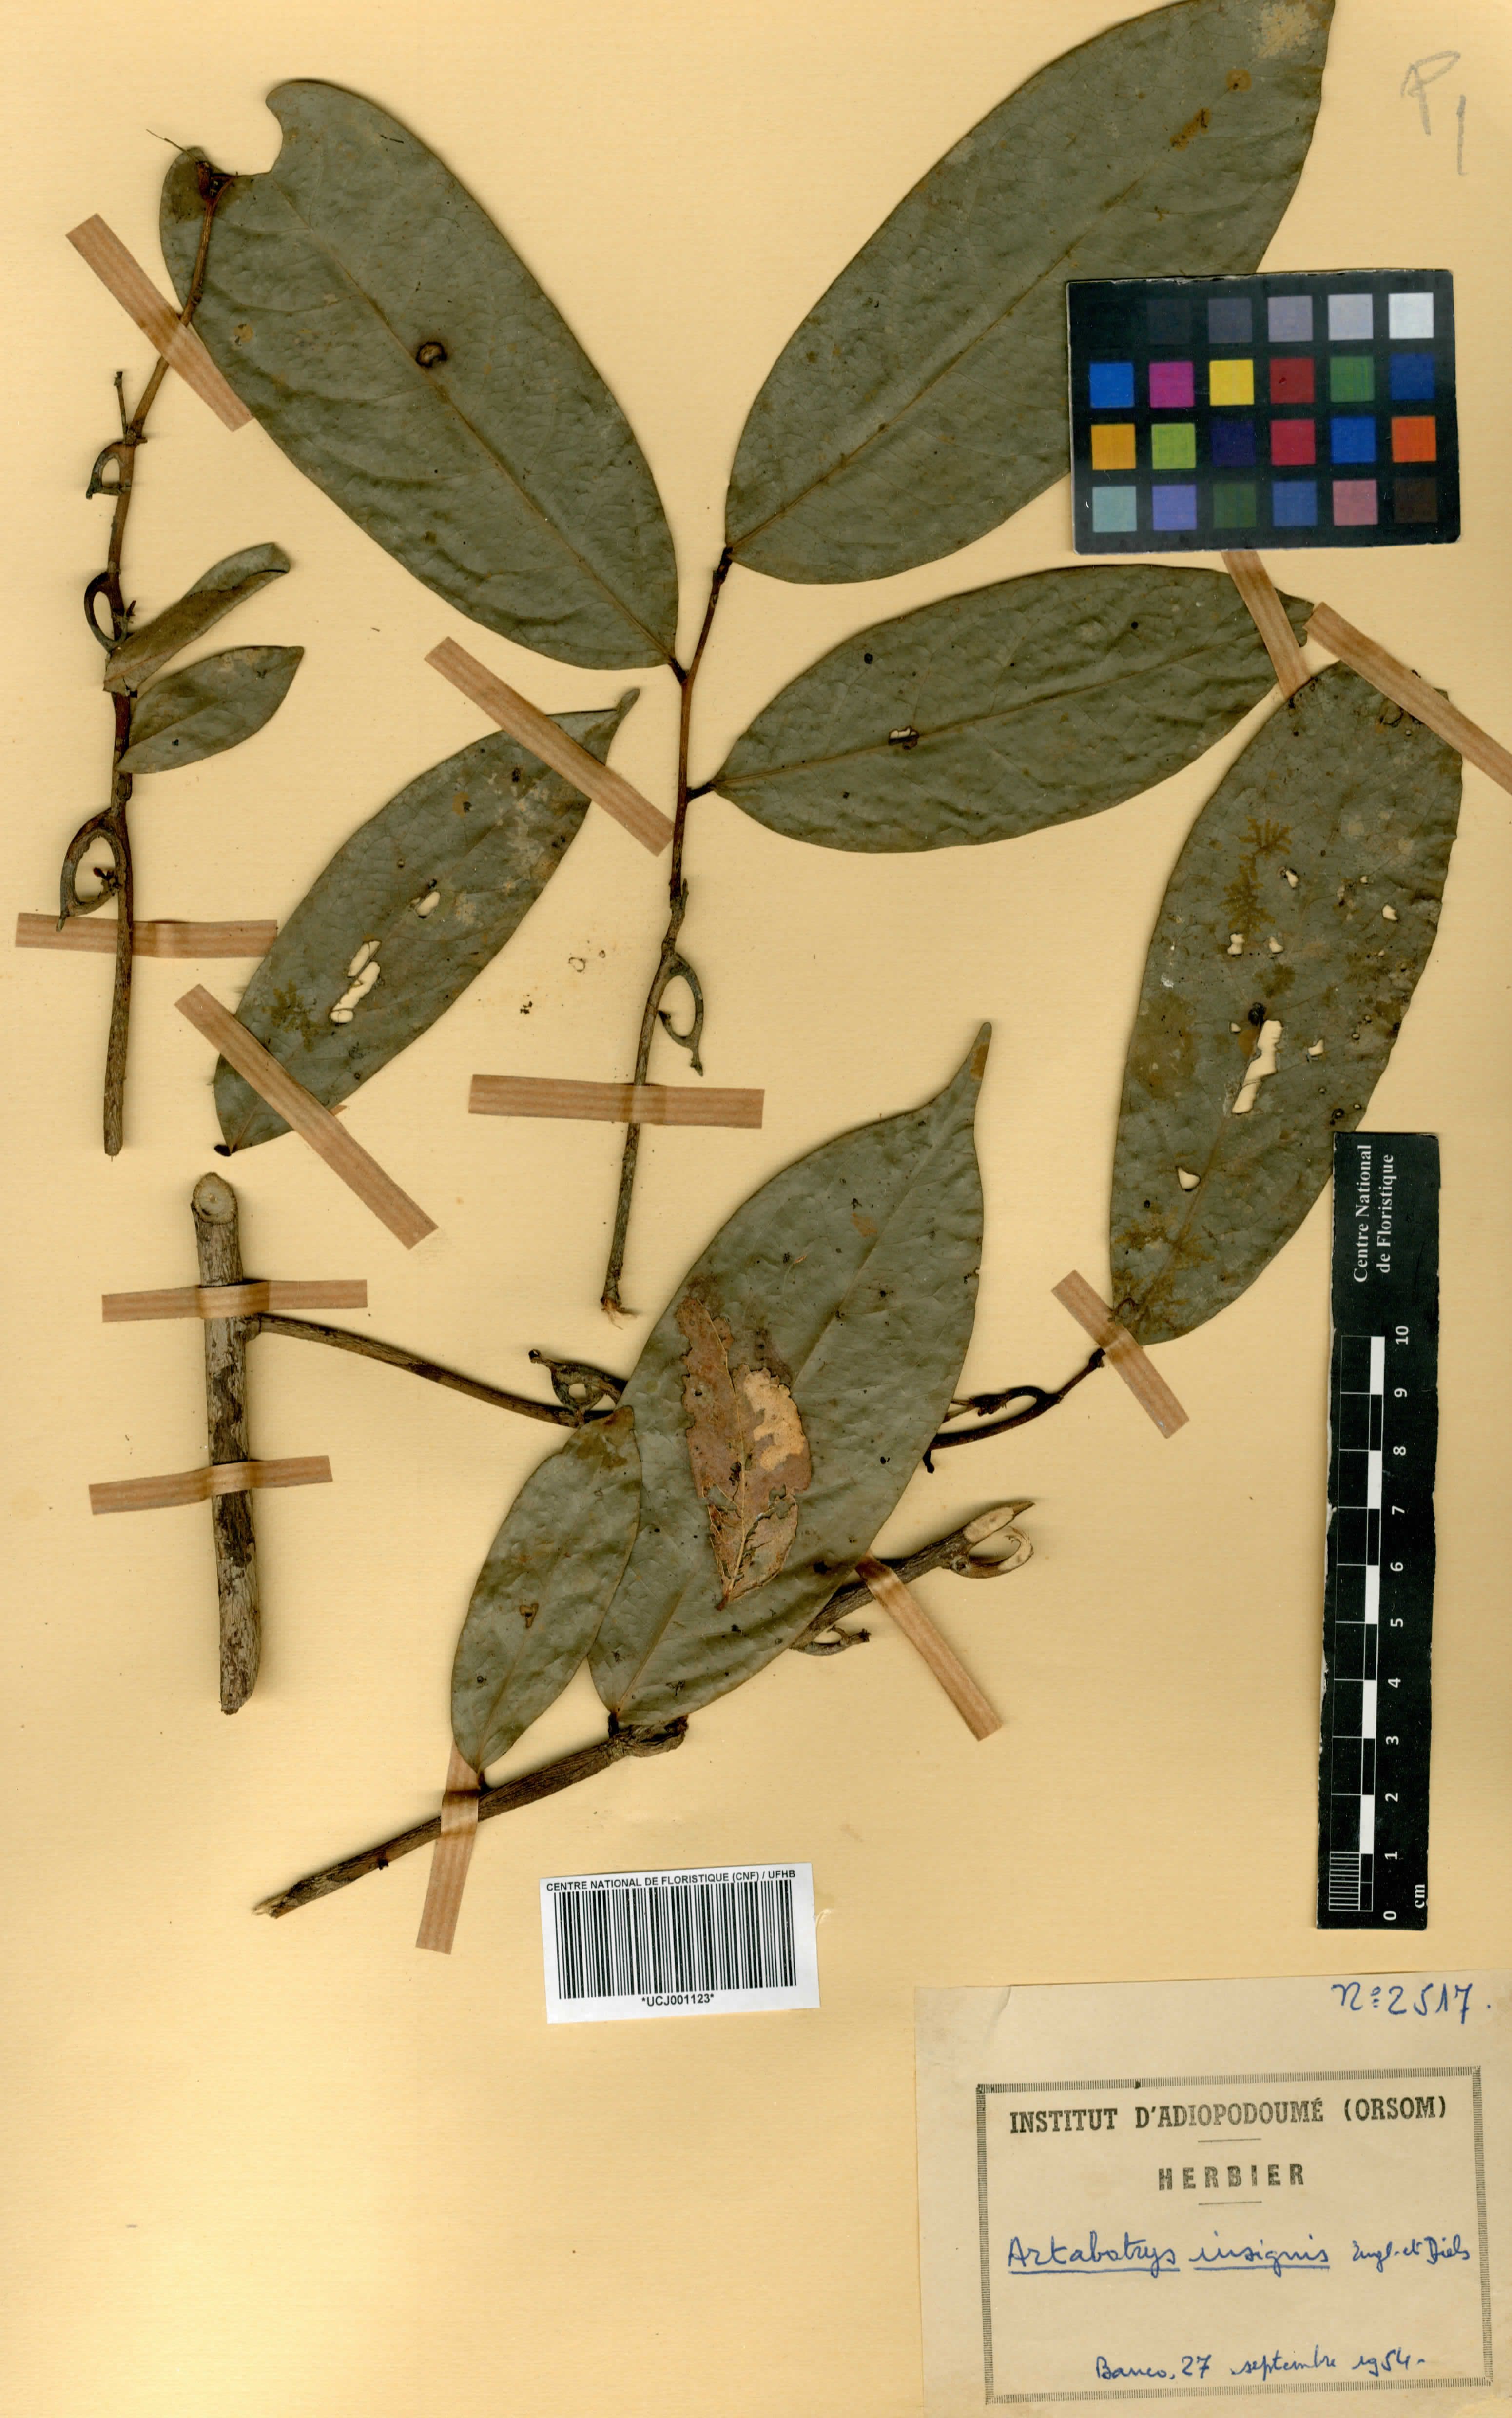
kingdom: Plantae
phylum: Tracheophyta
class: Magnoliopsida
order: Magnoliales
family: Annonaceae
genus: Artabotrys
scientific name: Artabotrys insignis
